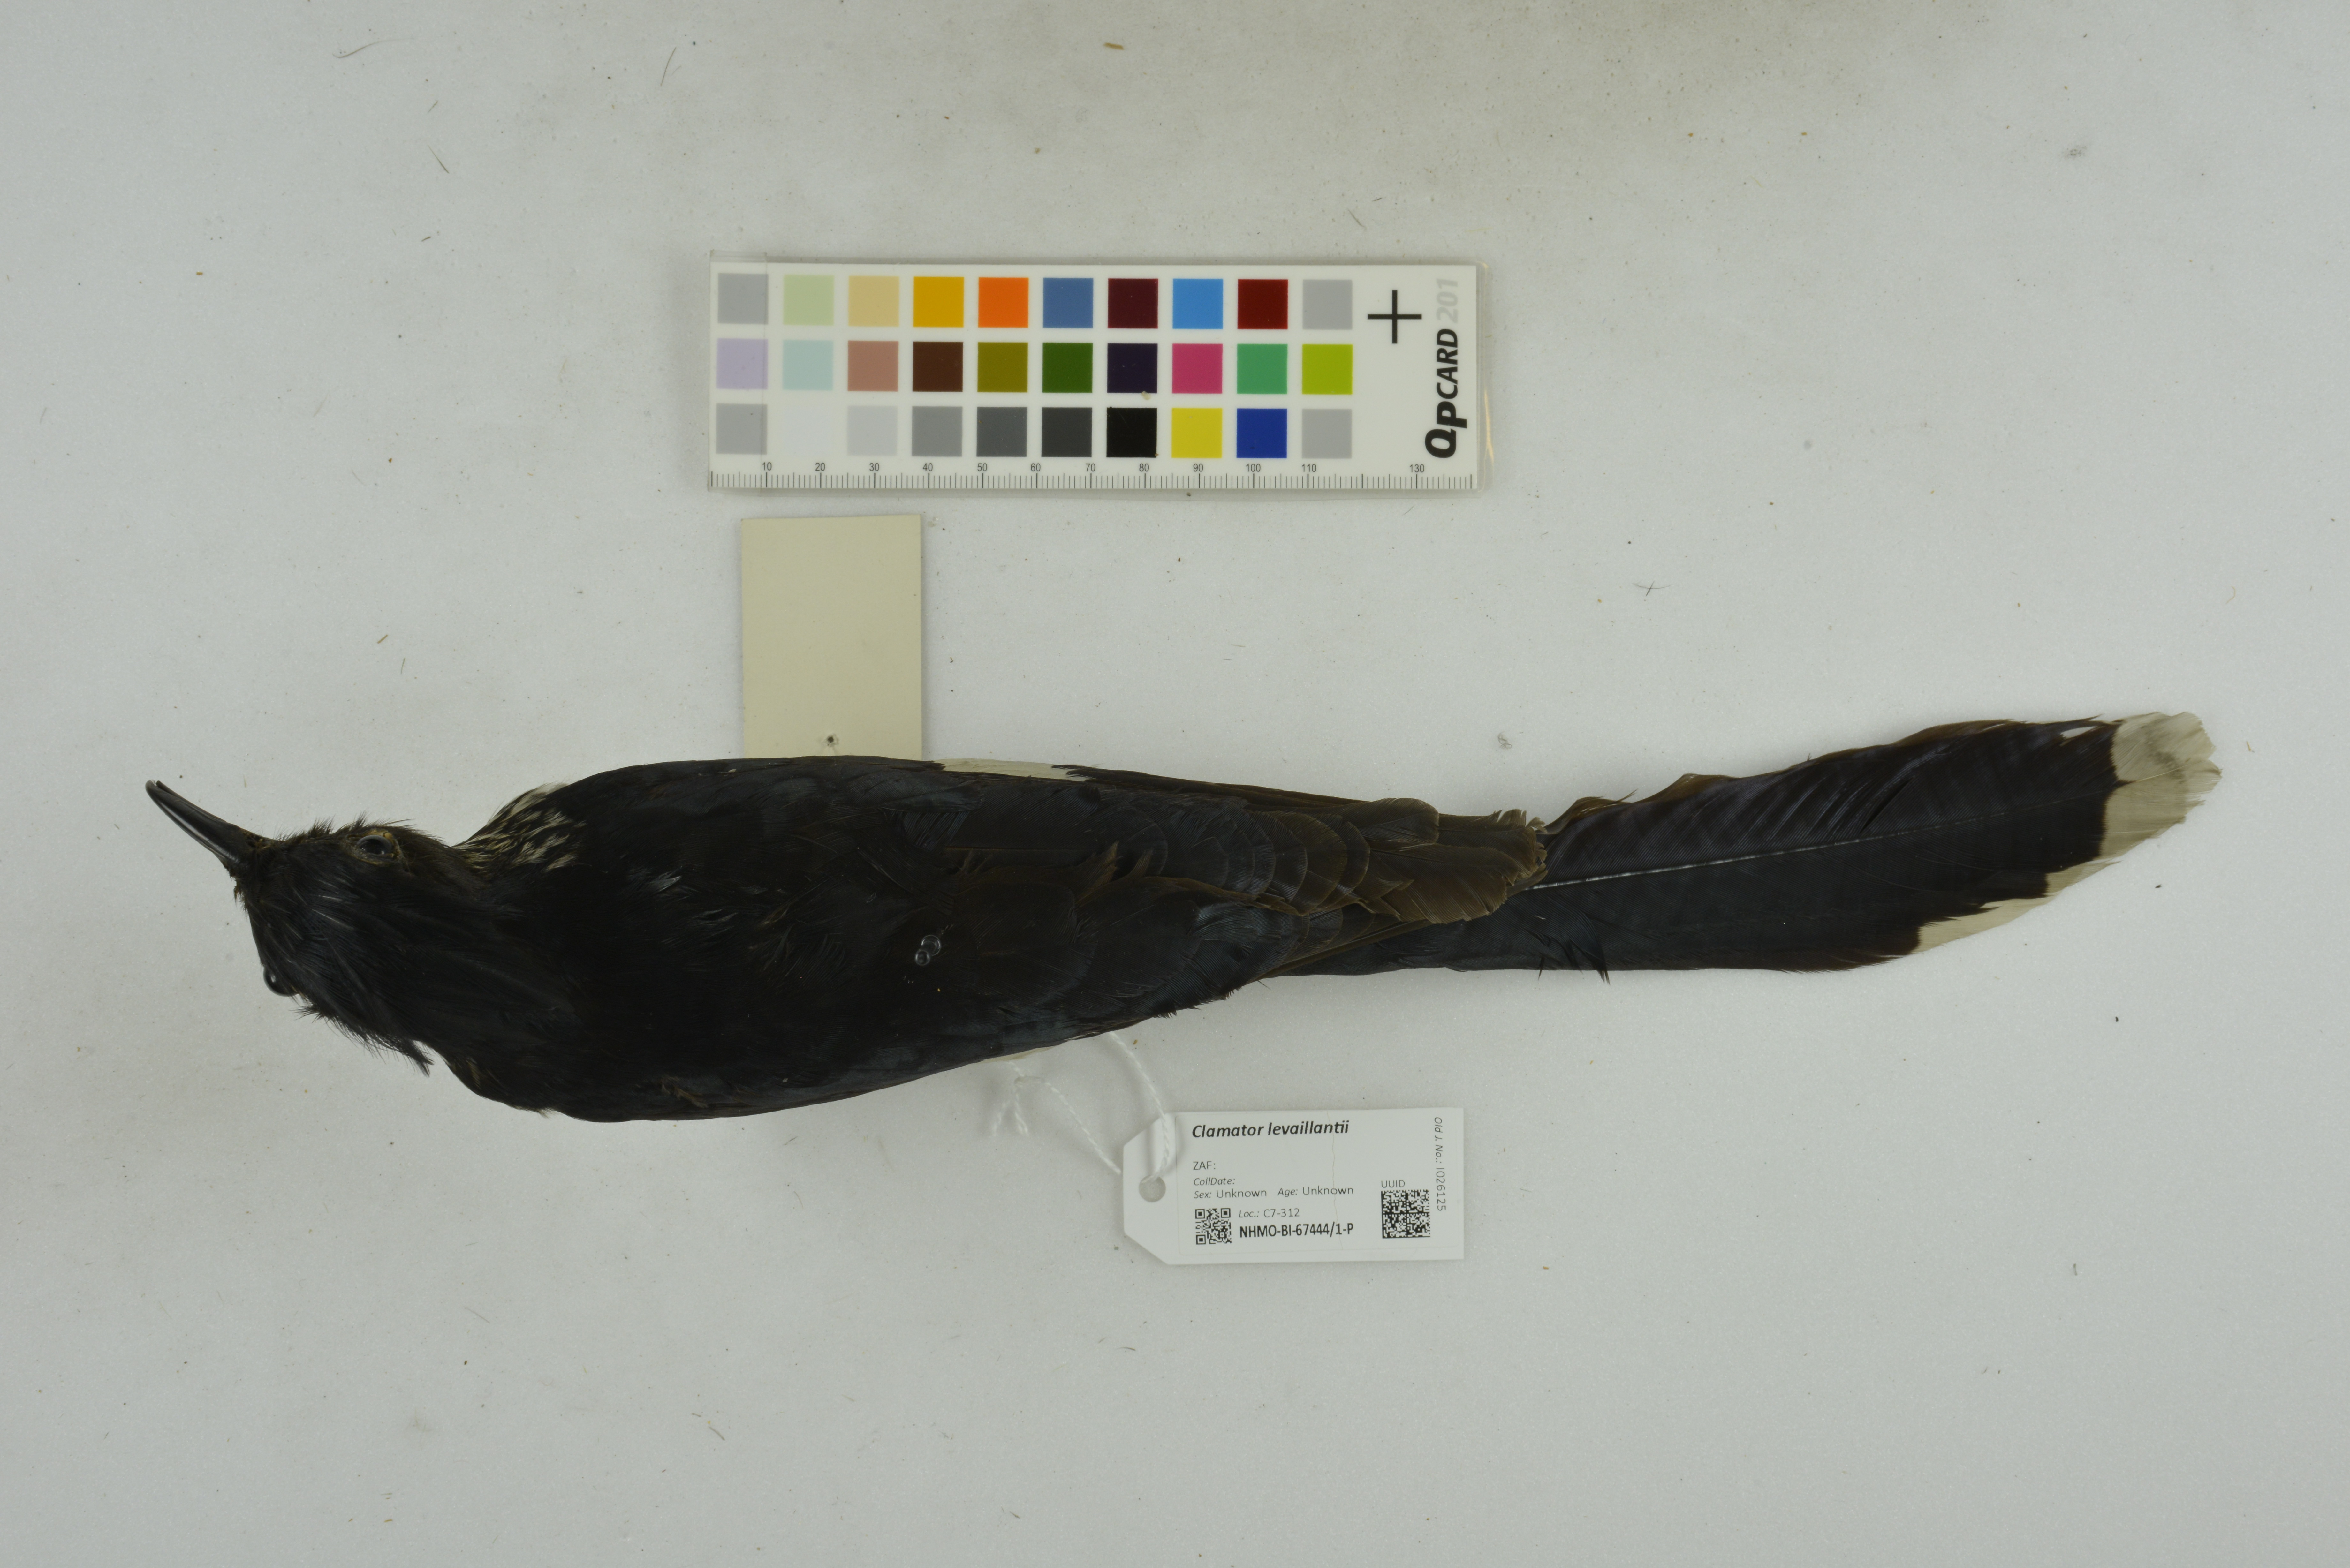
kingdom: Animalia
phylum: Chordata
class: Aves
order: Cuculiformes
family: Cuculidae
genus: Clamator
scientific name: Clamator levaillantii
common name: Levaillant's cuckoo
